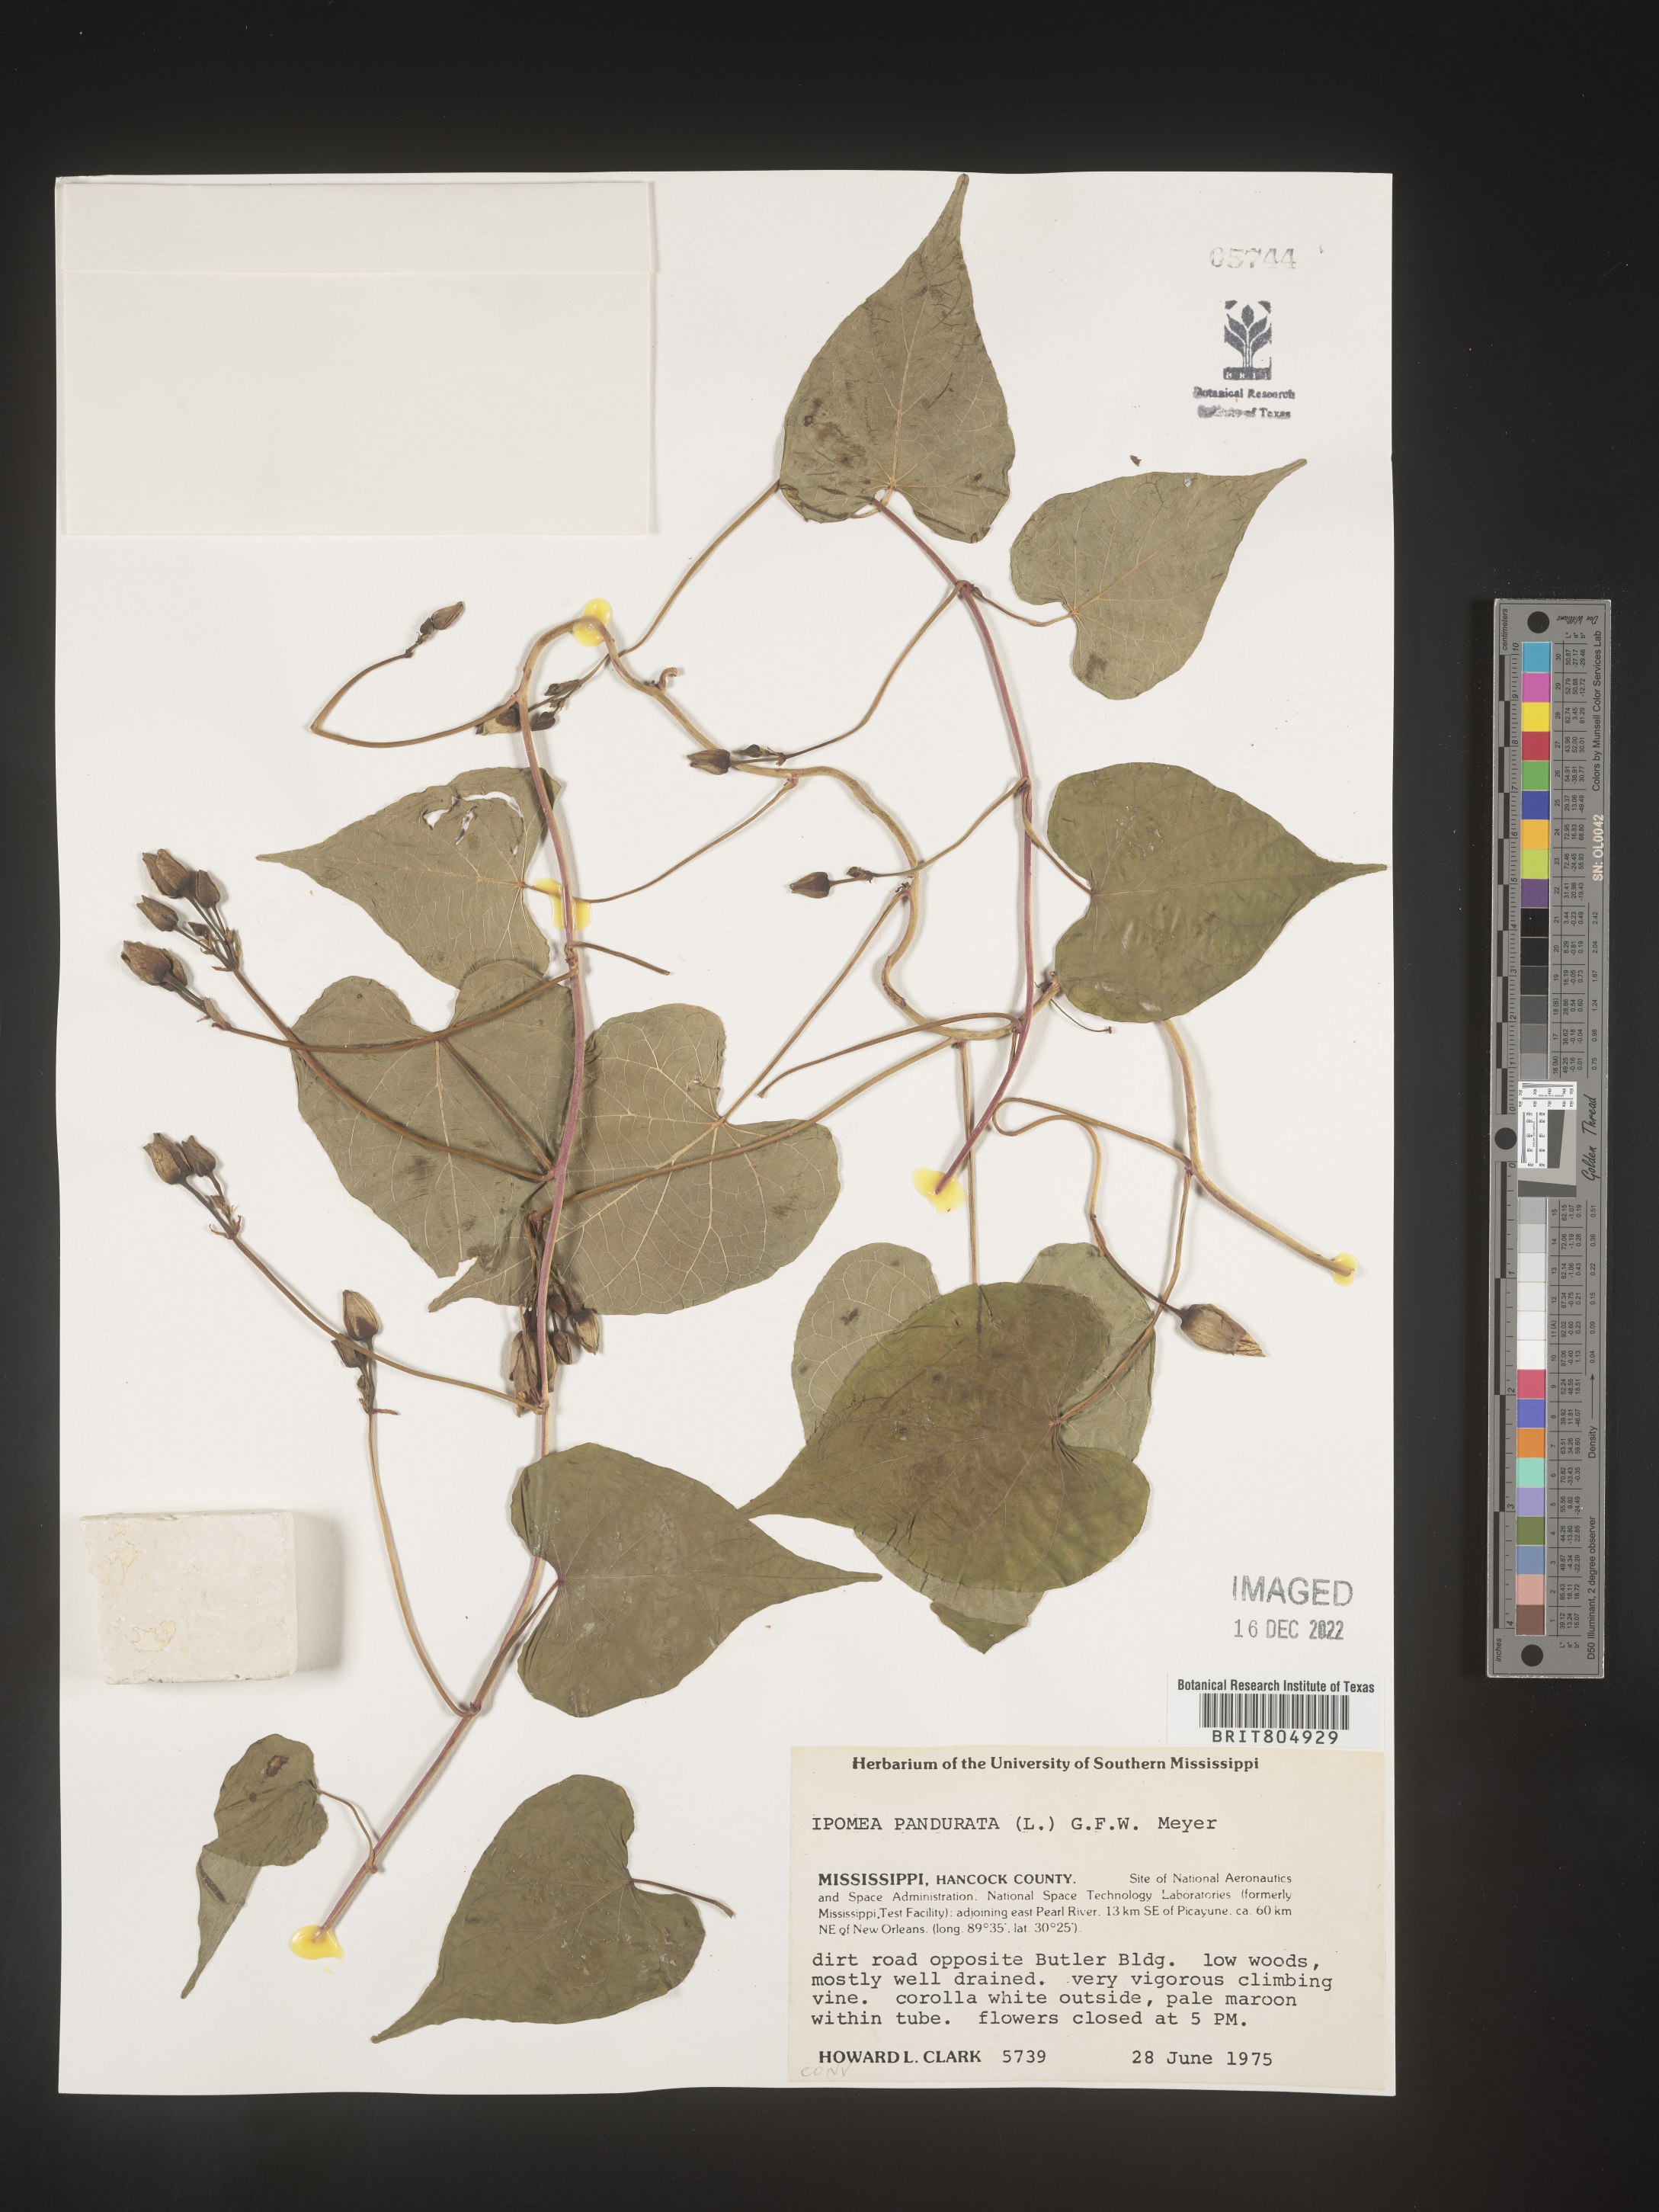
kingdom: Plantae
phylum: Tracheophyta
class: Magnoliopsida
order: Solanales
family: Convolvulaceae
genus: Ipomoea
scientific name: Ipomoea pandurata
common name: Man-of-the-earth
